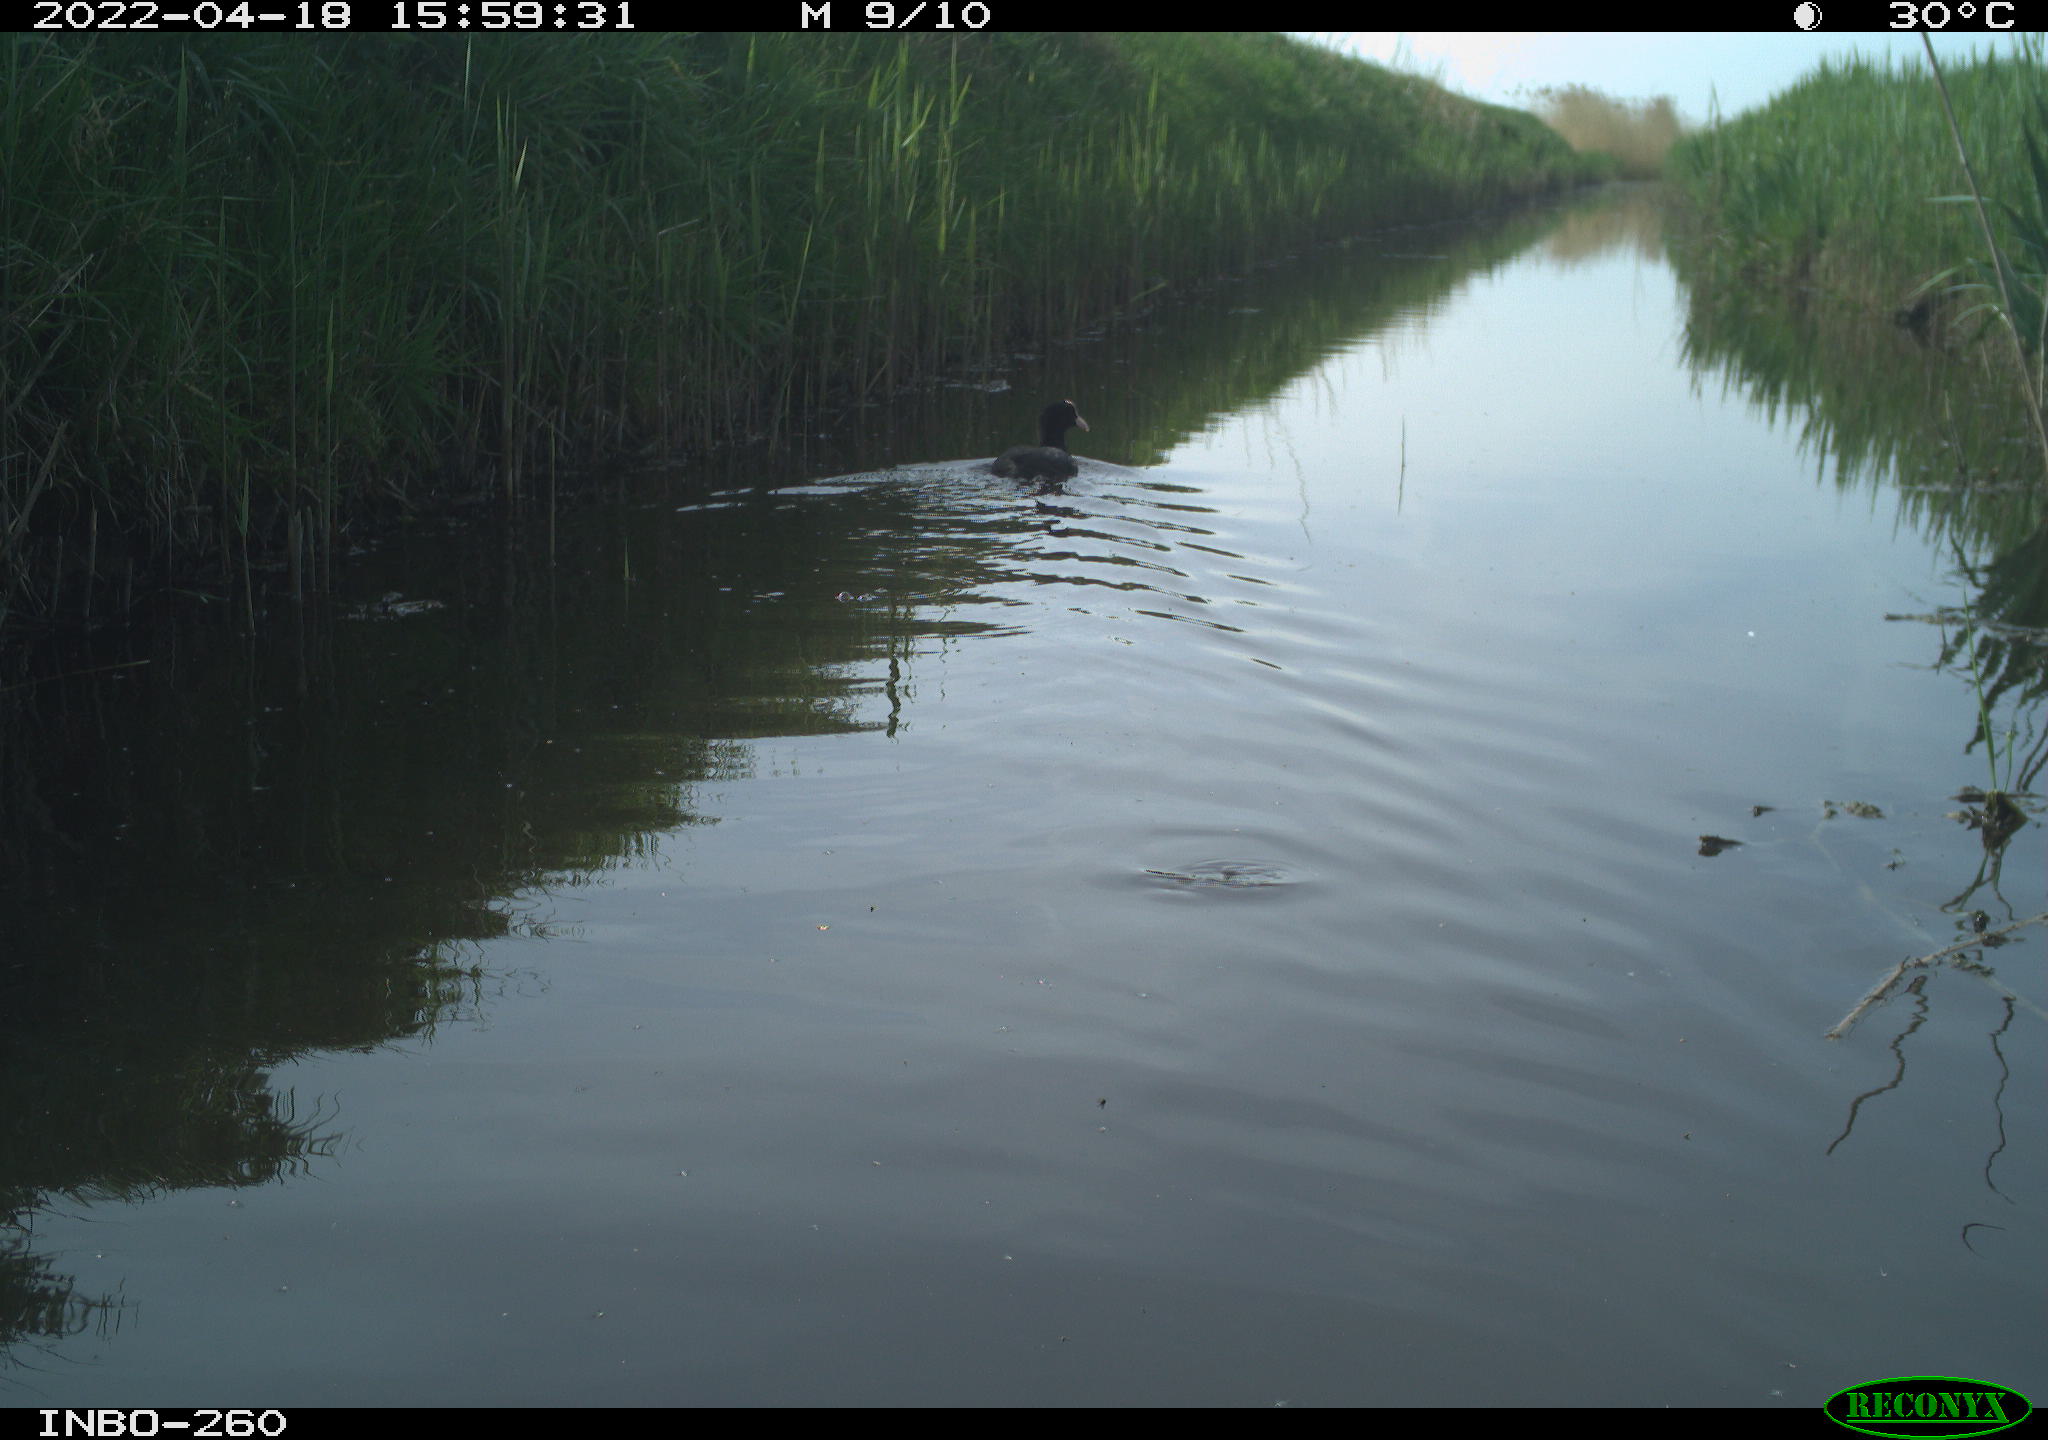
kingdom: Animalia
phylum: Chordata
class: Aves
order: Gruiformes
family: Rallidae
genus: Fulica
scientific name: Fulica atra
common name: Eurasian coot
